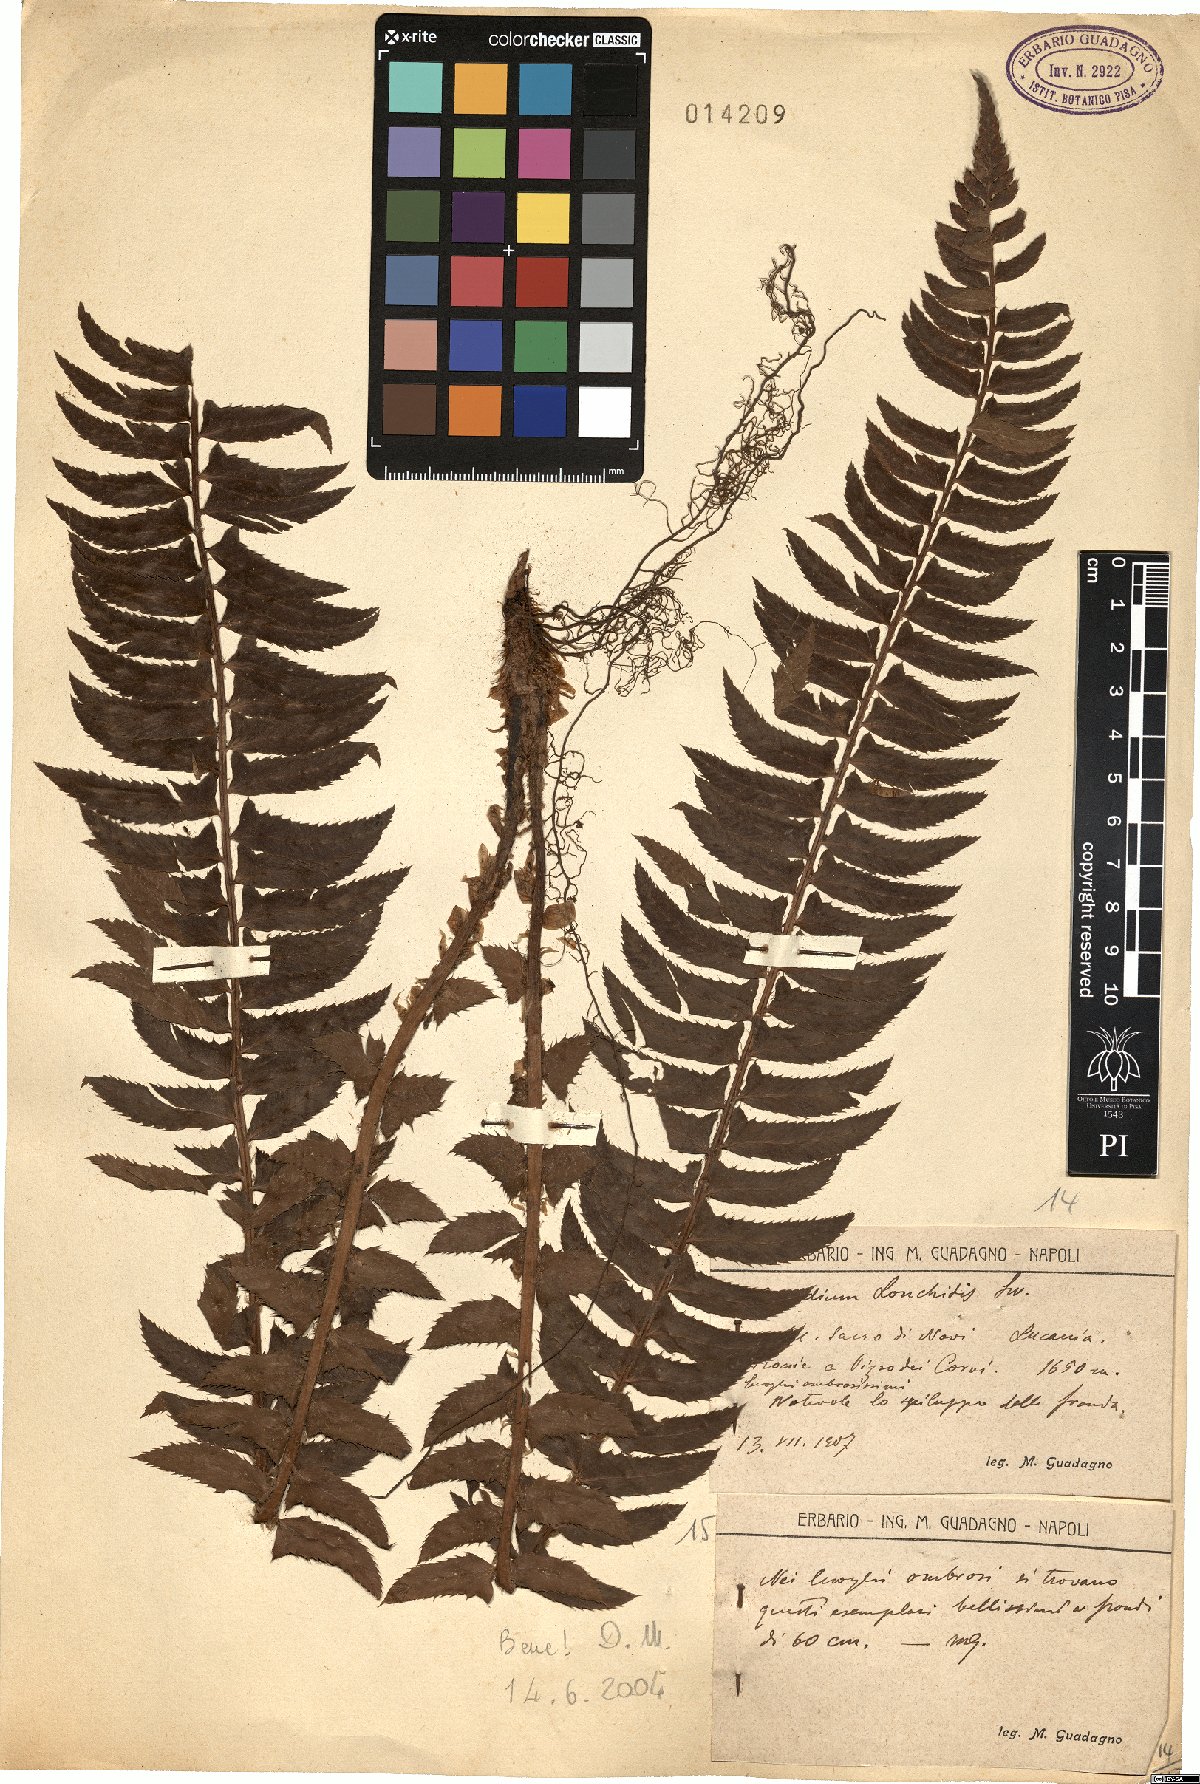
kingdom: Plantae
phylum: Tracheophyta
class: Polypodiopsida
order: Polypodiales
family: Dryopteridaceae
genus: Polystichum
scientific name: Polystichum lonchitis
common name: Holly fern
